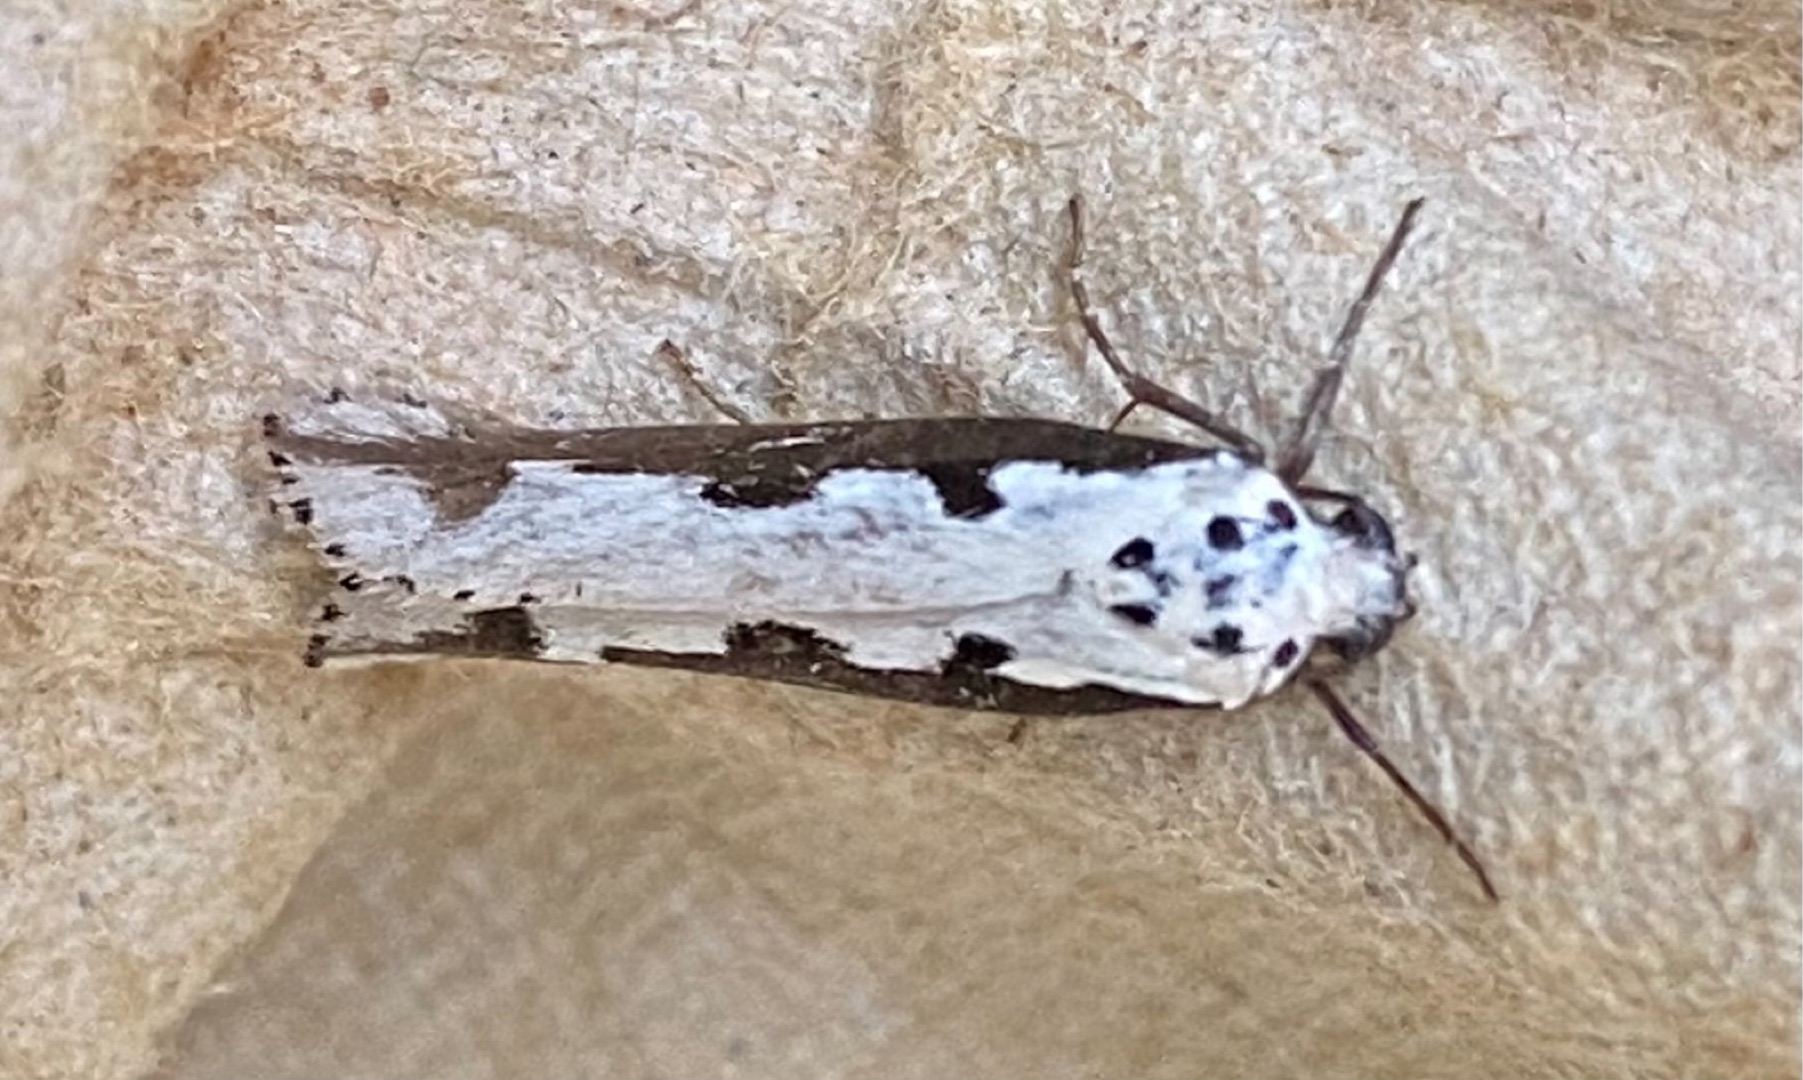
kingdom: Animalia
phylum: Arthropoda
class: Insecta
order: Lepidoptera
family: Ethmiidae
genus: Ethmia
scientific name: Ethmia bipunctella
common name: Slangehovedmøl
